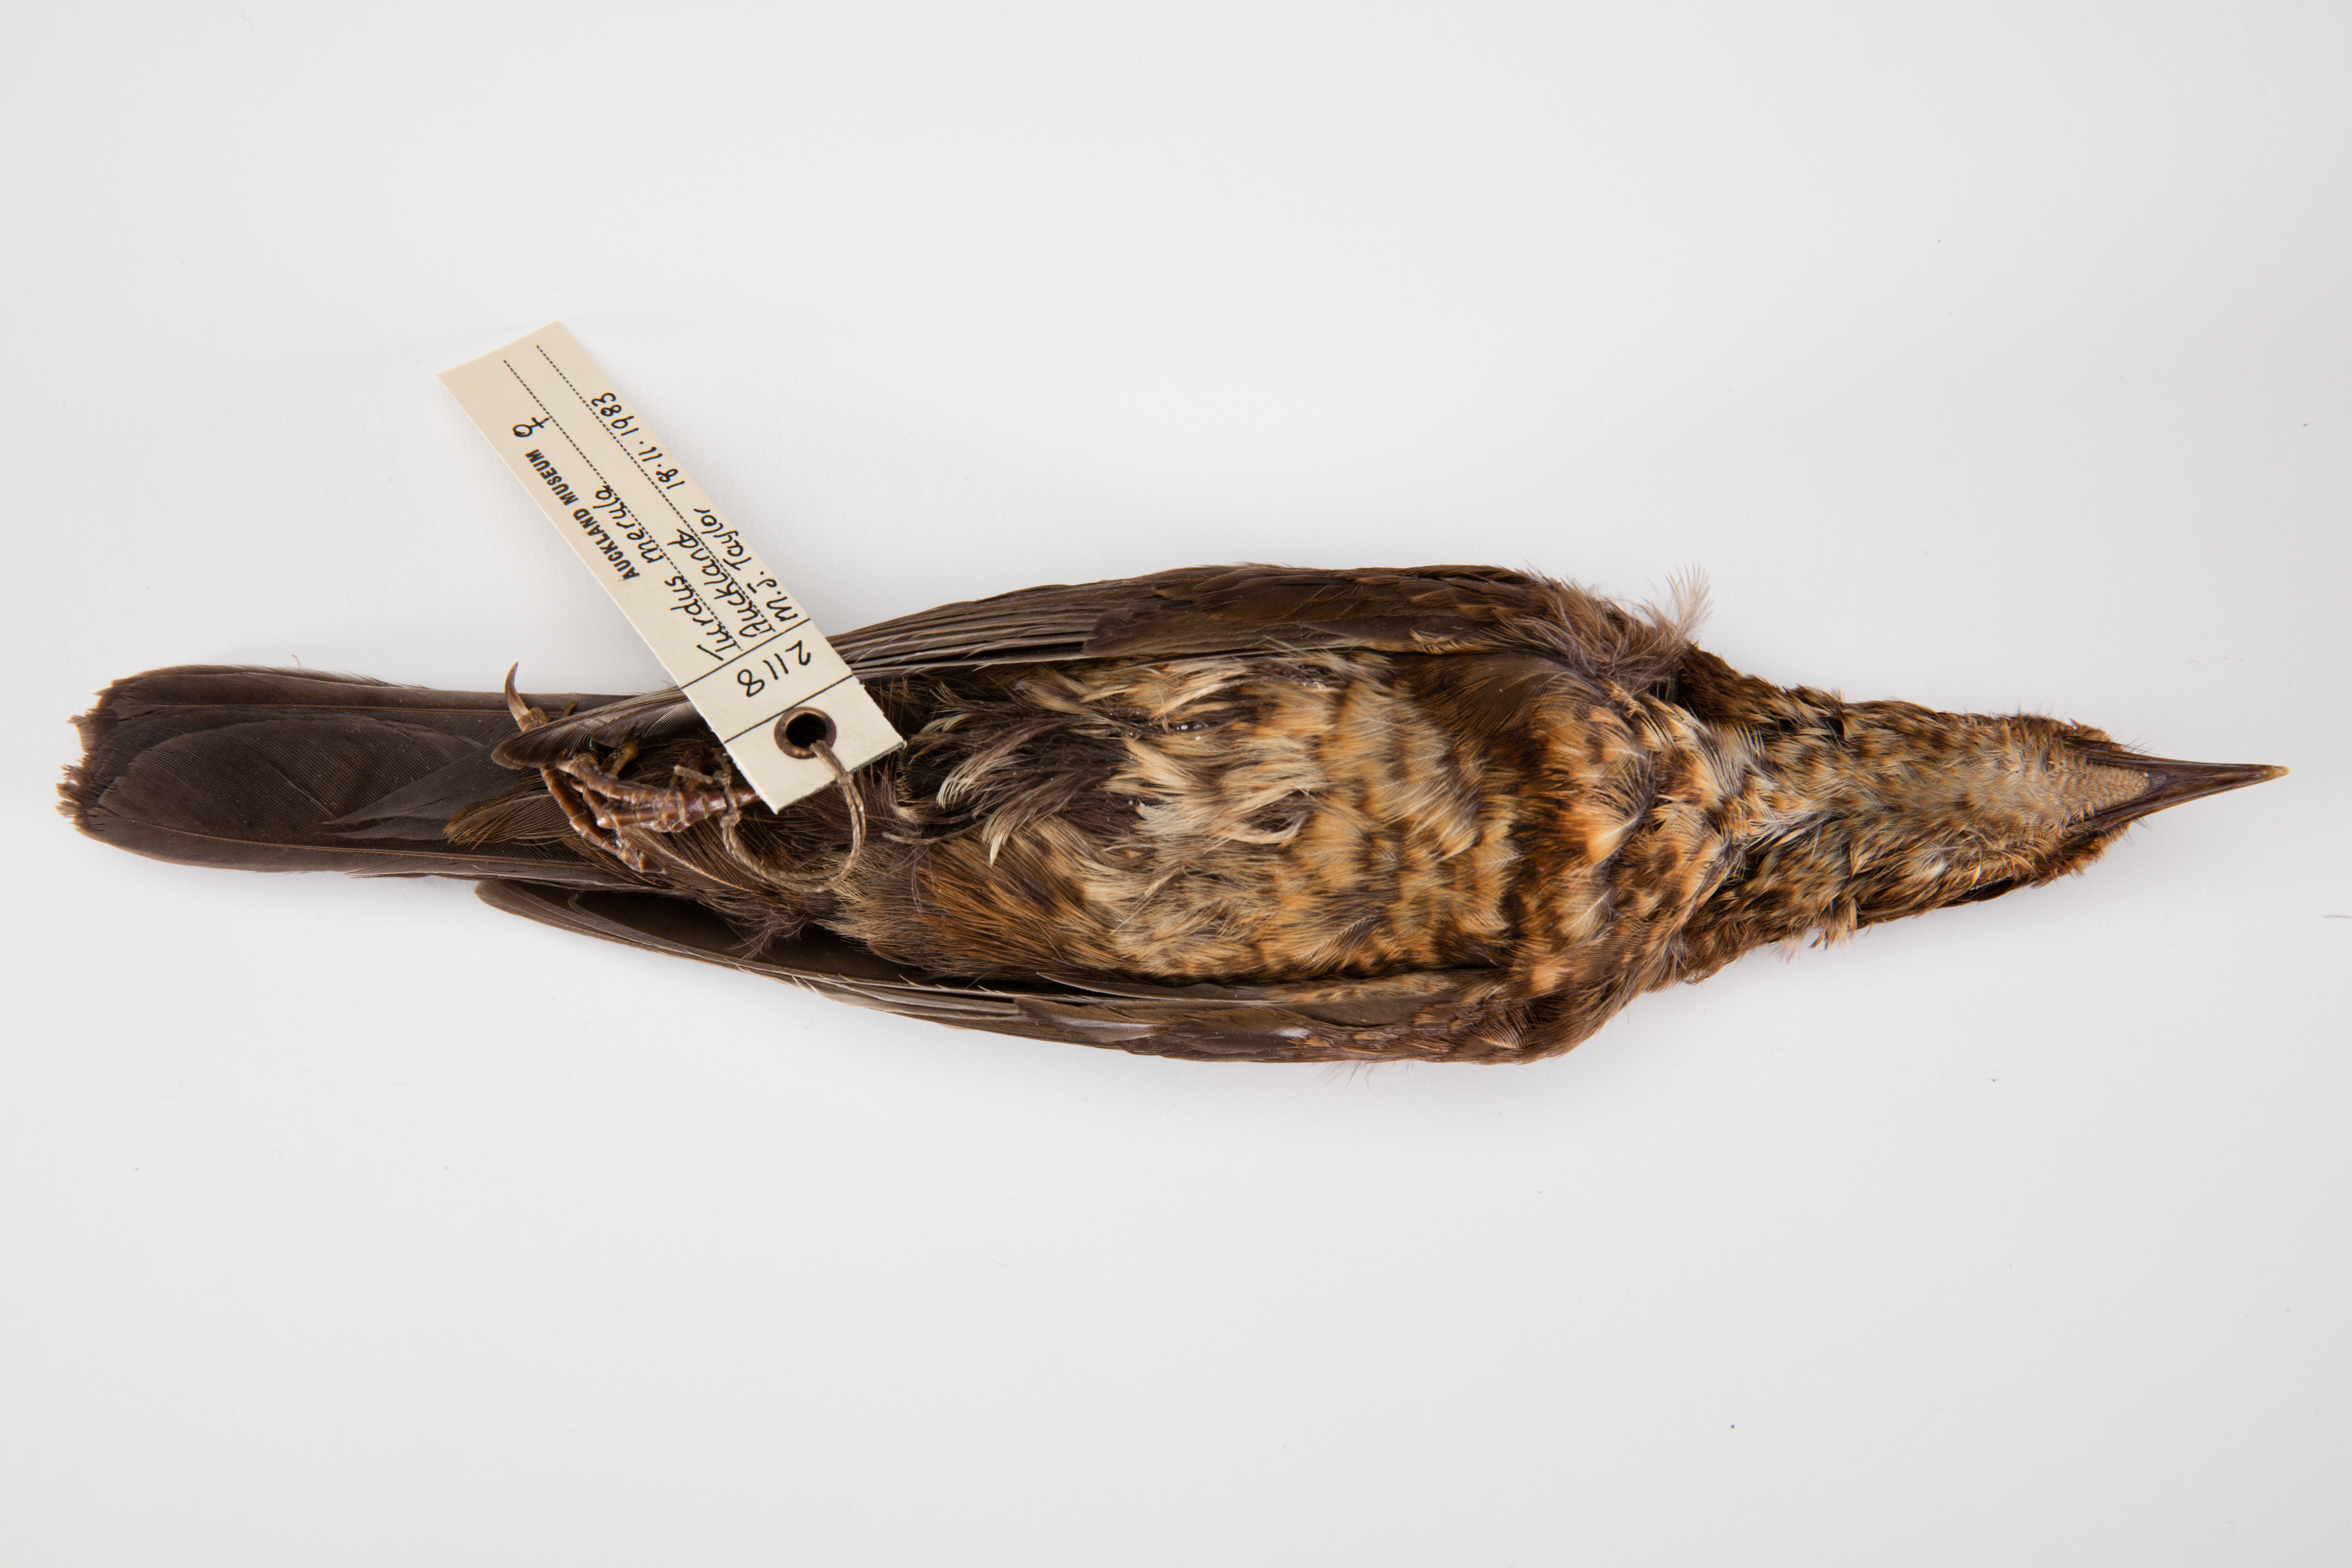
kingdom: Animalia
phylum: Chordata
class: Aves
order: Passeriformes
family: Turdidae
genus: Turdus
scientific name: Turdus merula
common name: Common blackbird
